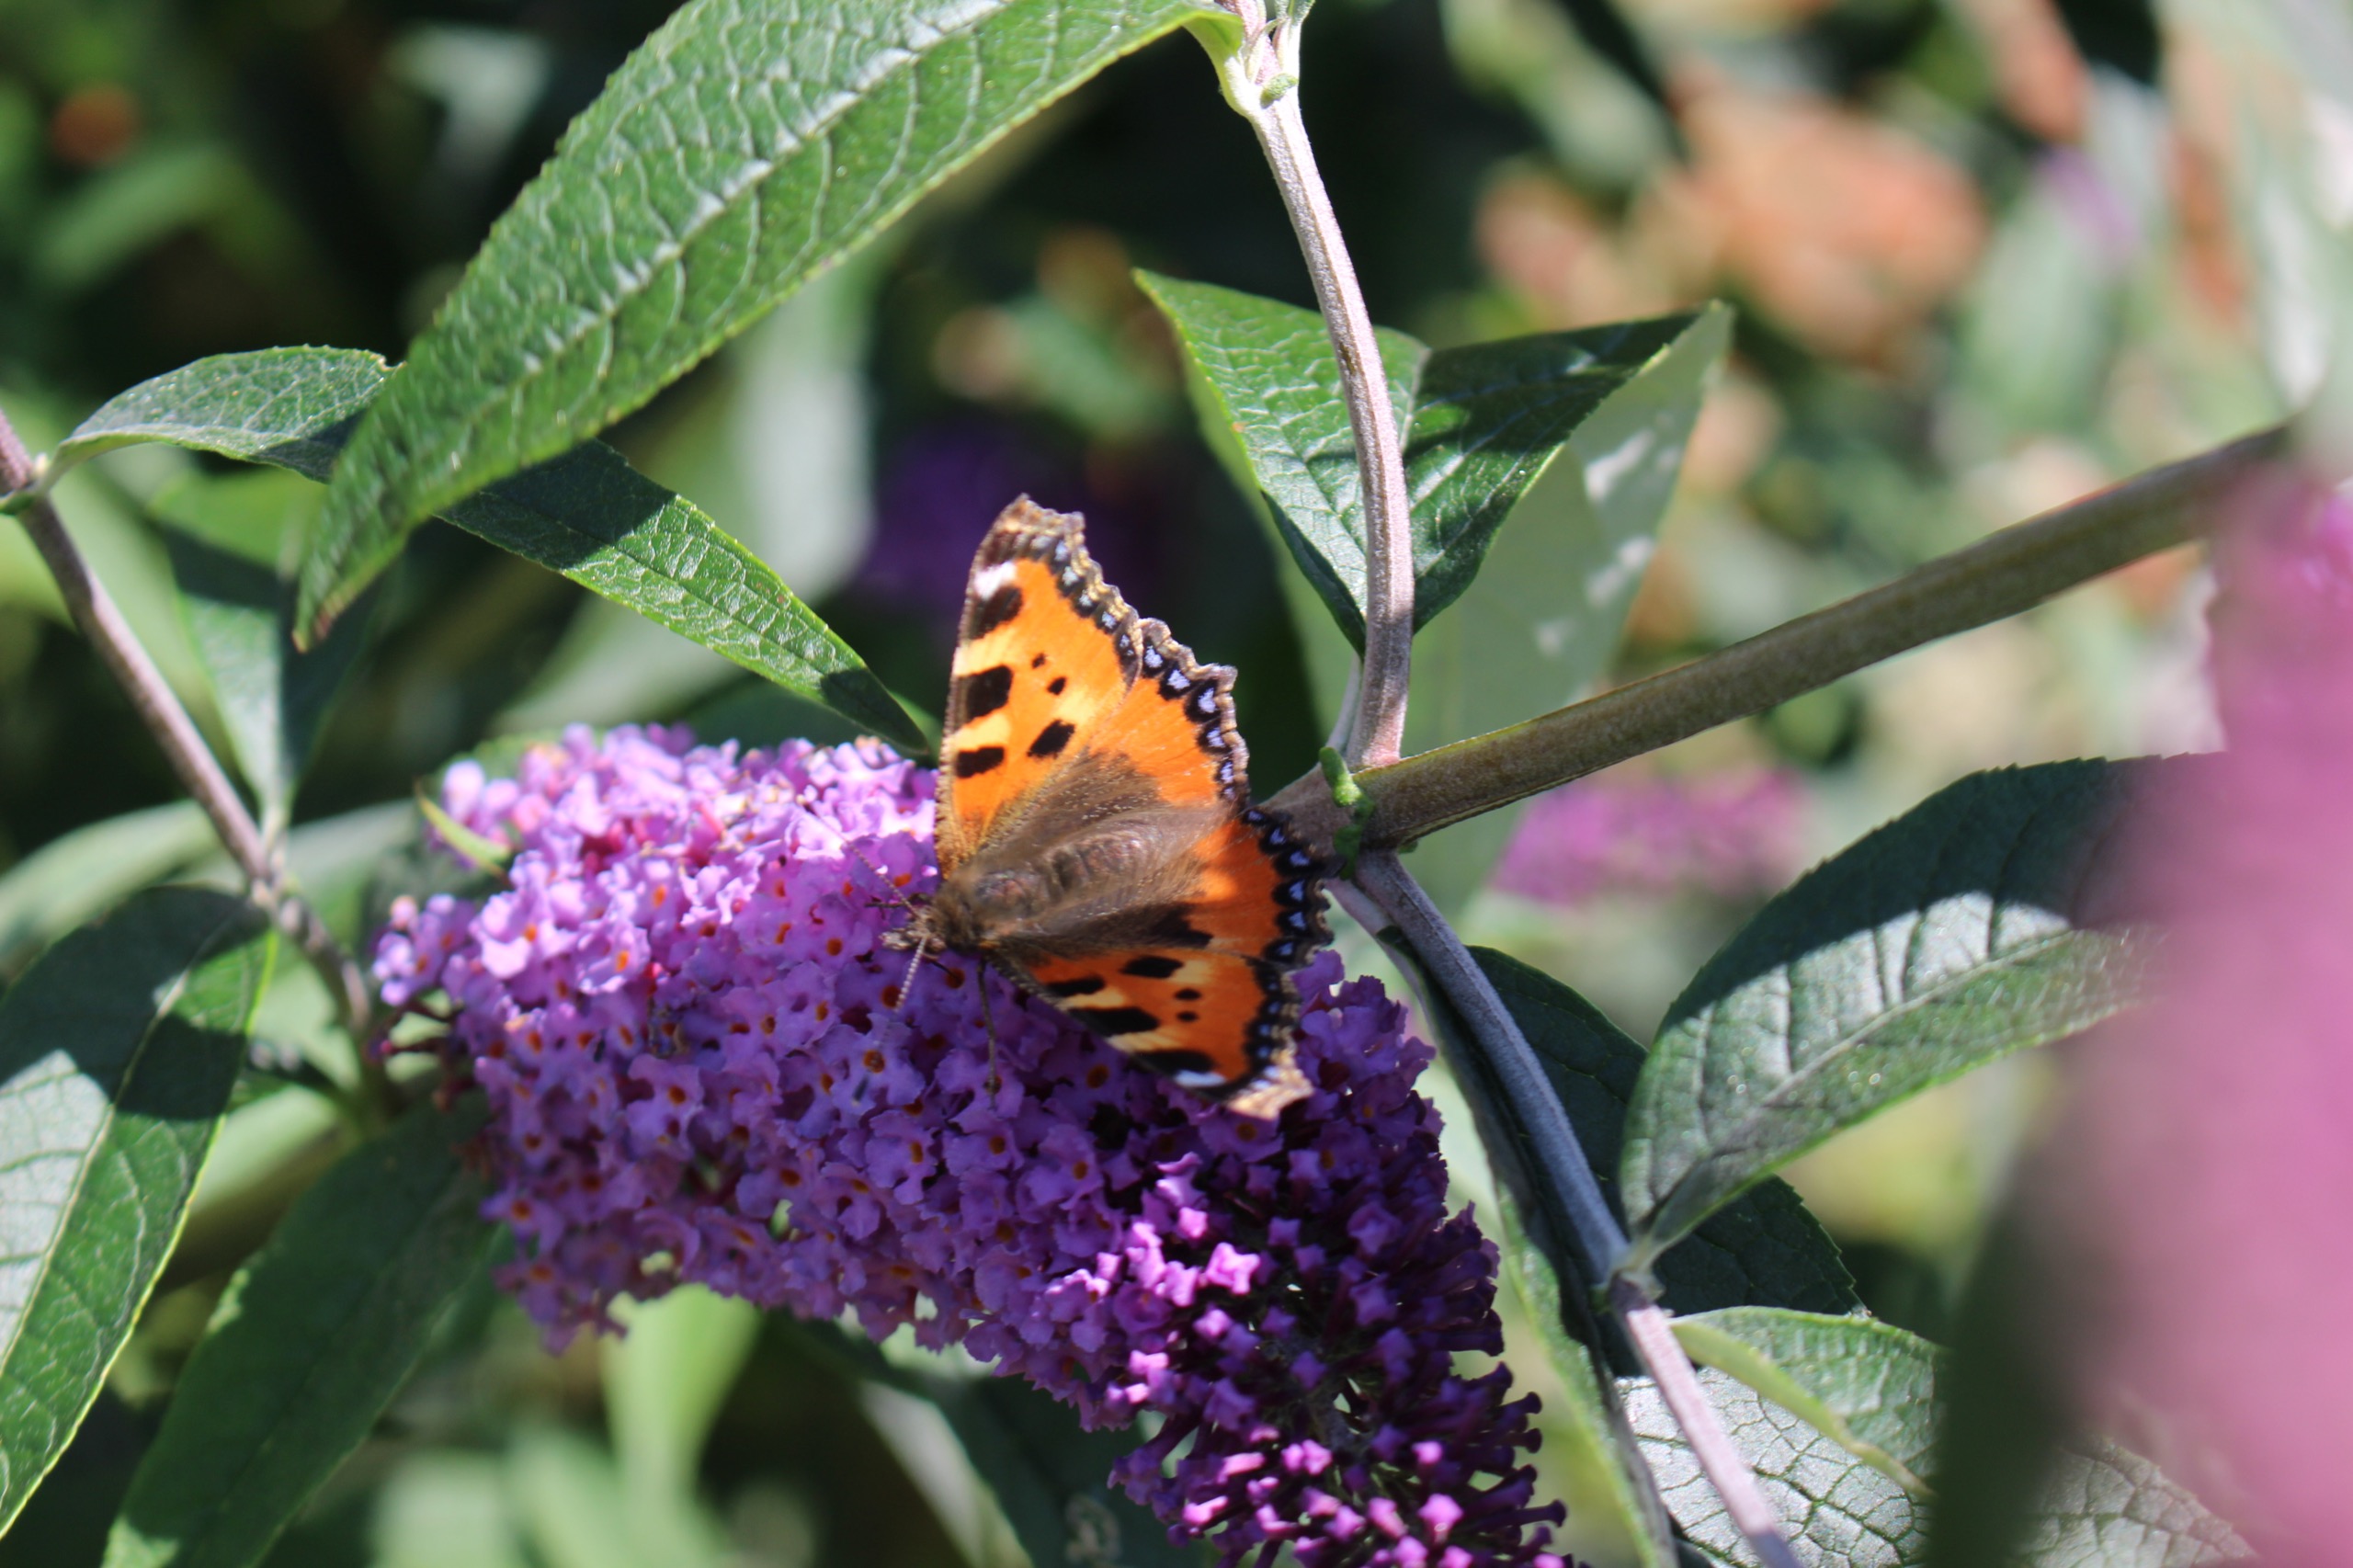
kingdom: Animalia
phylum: Arthropoda
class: Insecta
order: Lepidoptera
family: Nymphalidae
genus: Aglais
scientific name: Aglais urticae
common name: Nældens takvinge
